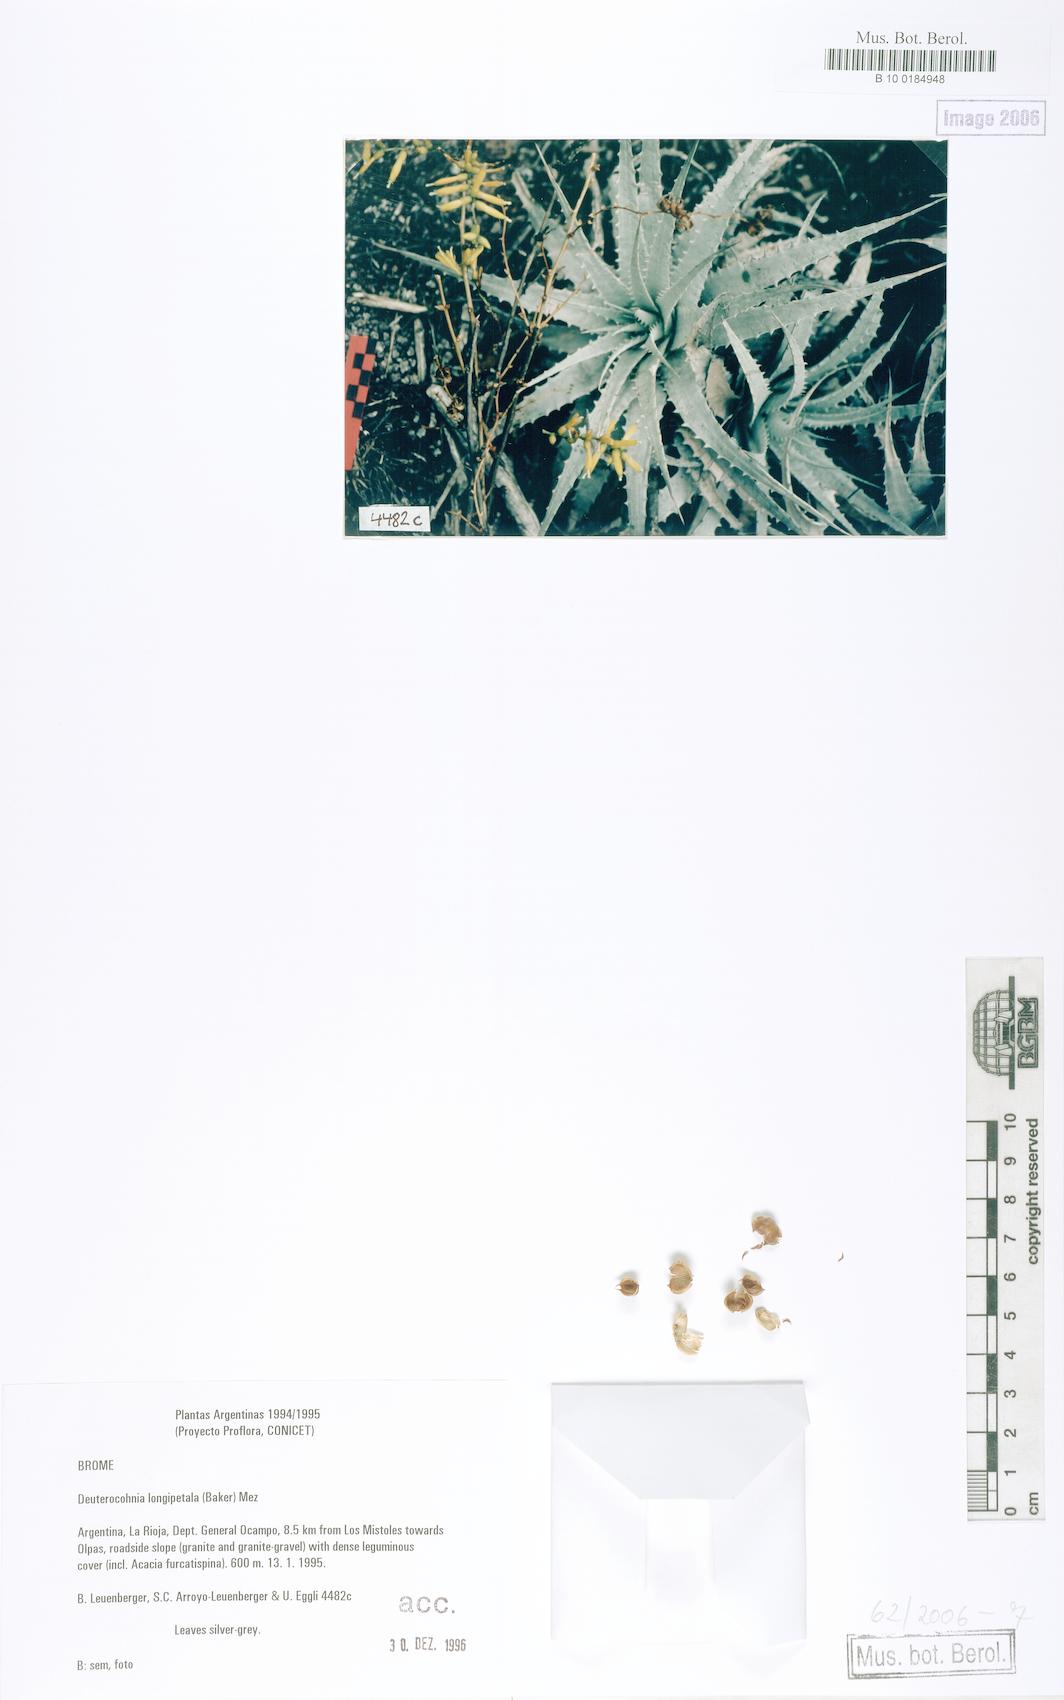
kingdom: Plantae
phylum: Tracheophyta
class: Liliopsida
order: Poales
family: Bromeliaceae
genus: Deuterocohnia
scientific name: Deuterocohnia longipetala
